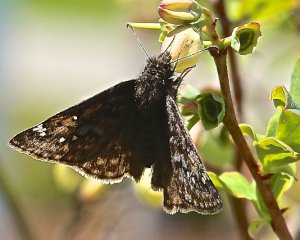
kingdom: Animalia
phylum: Arthropoda
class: Insecta
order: Lepidoptera
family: Hesperiidae
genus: Gesta
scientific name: Gesta
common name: Juvenal's Duskywing
